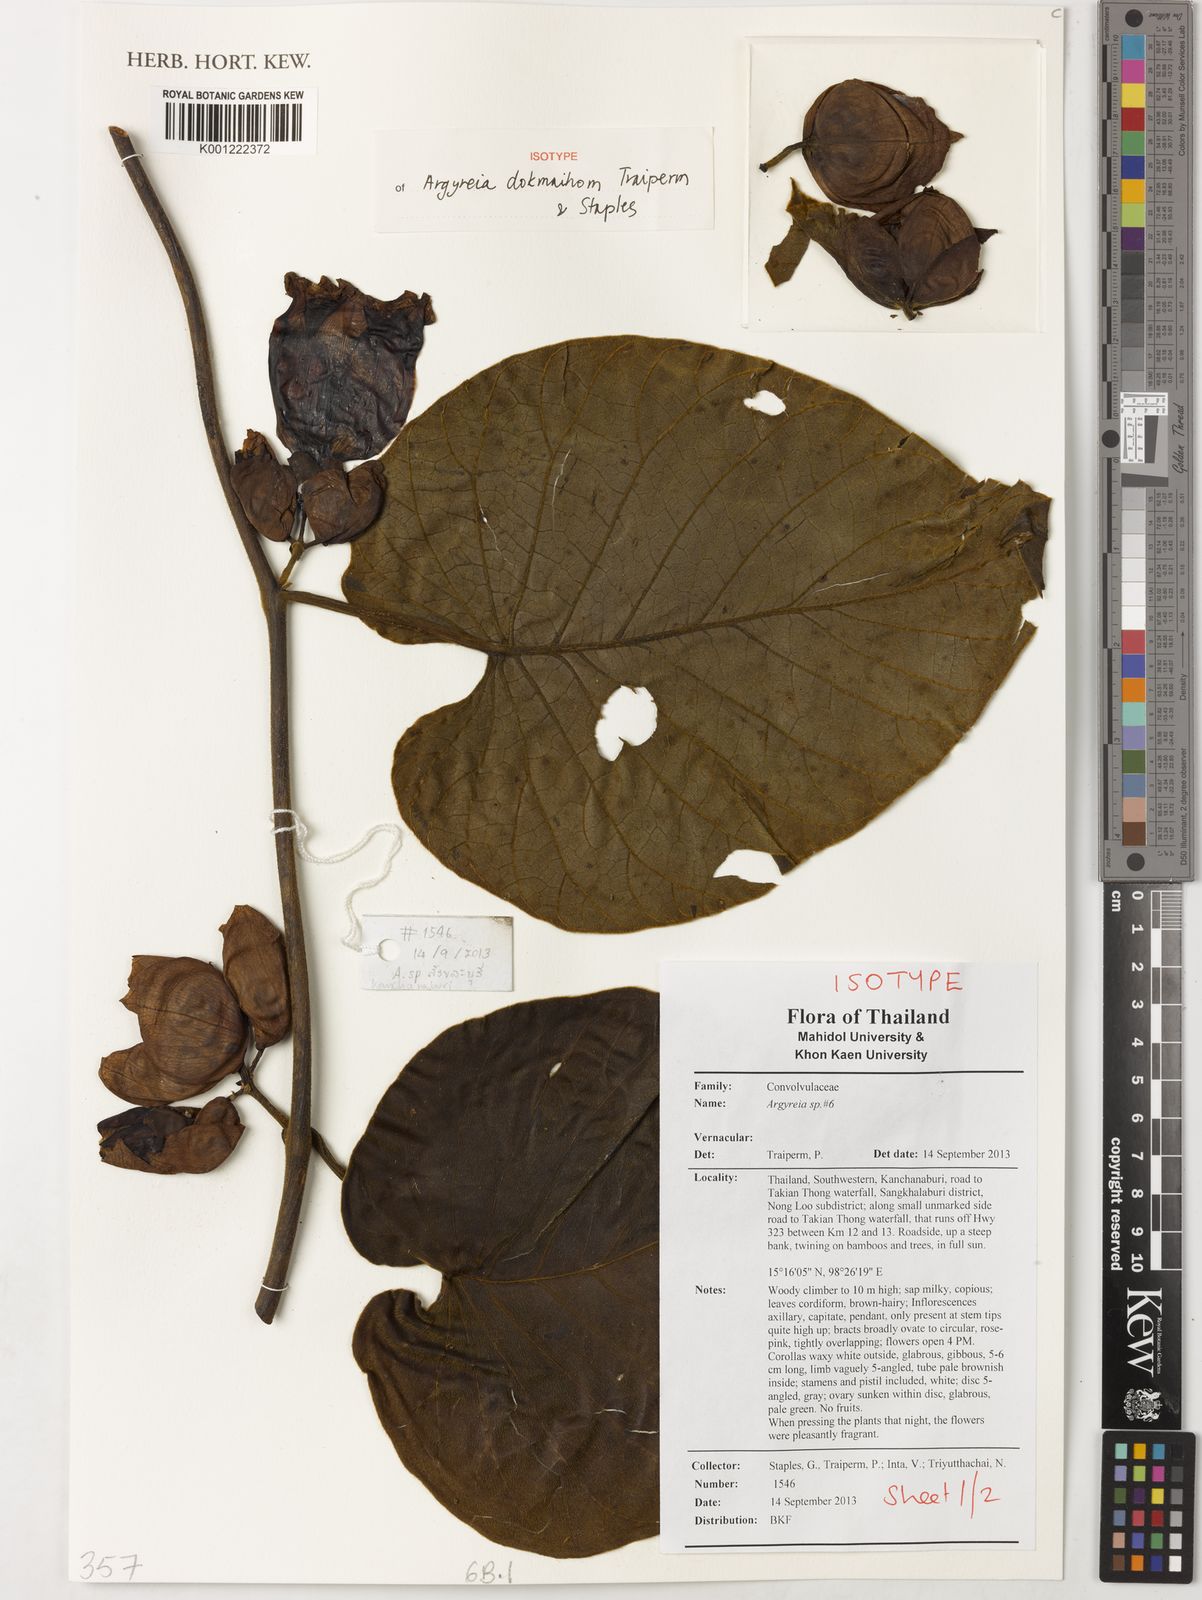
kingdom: Plantae
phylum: Tracheophyta
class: Magnoliopsida
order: Solanales
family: Convolvulaceae
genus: Argyreia
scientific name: Argyreia dokmaihom
